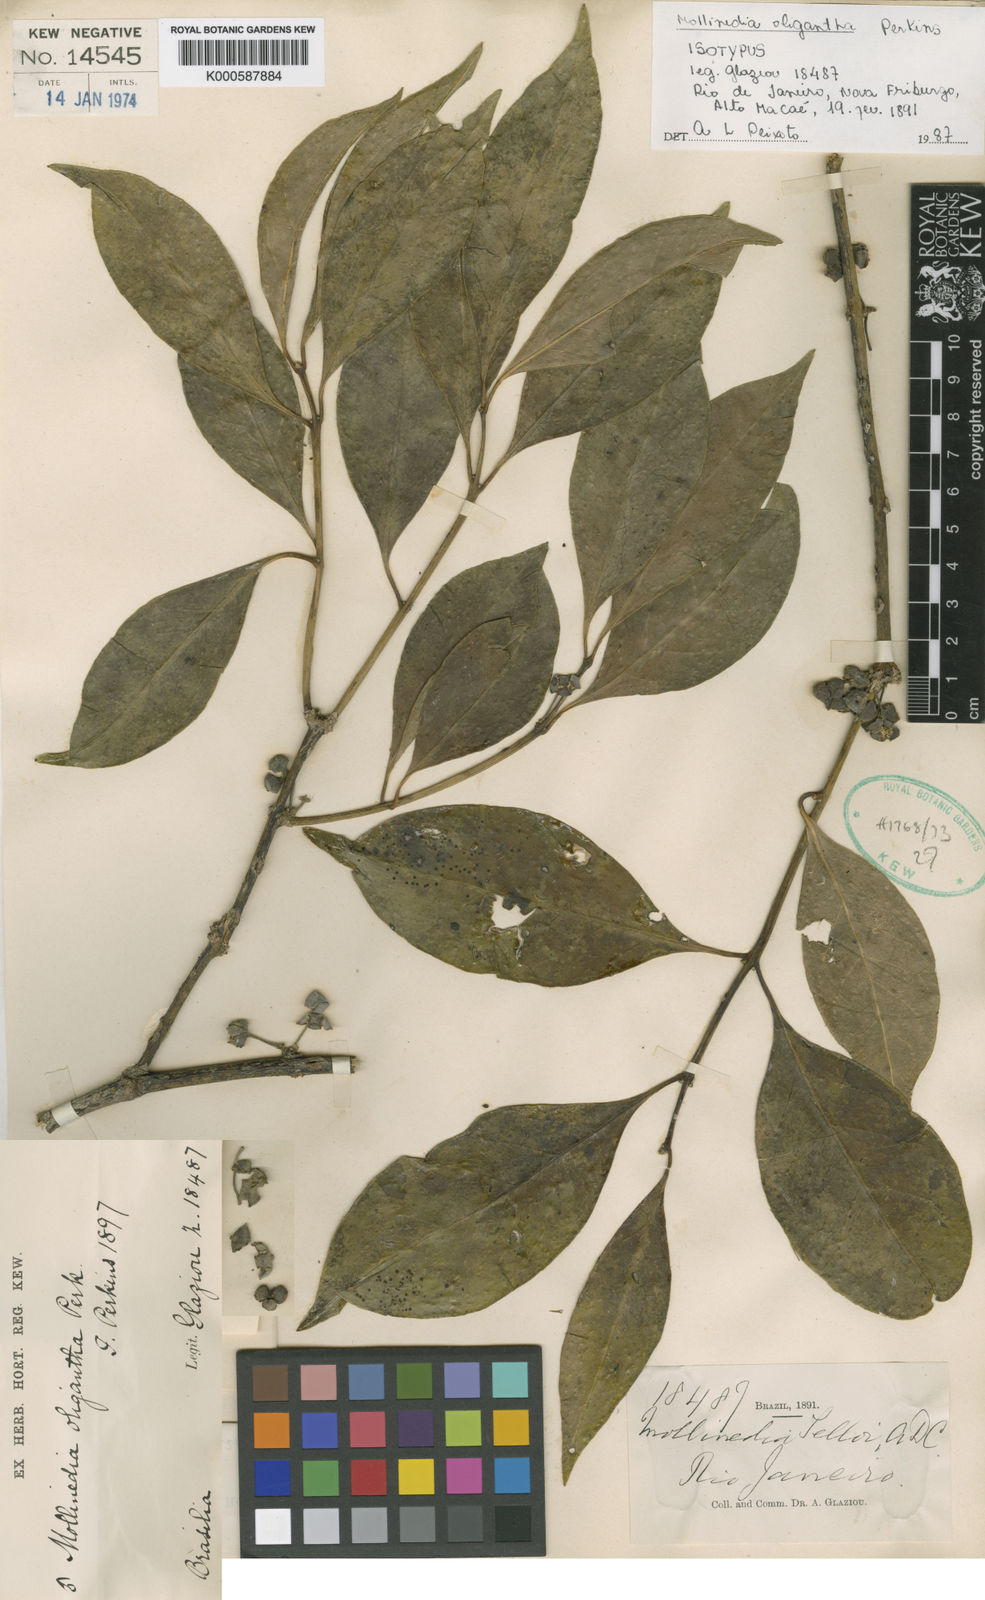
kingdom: Plantae
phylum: Tracheophyta
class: Magnoliopsida
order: Laurales
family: Monimiaceae
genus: Mollinedia
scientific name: Mollinedia oligantha
